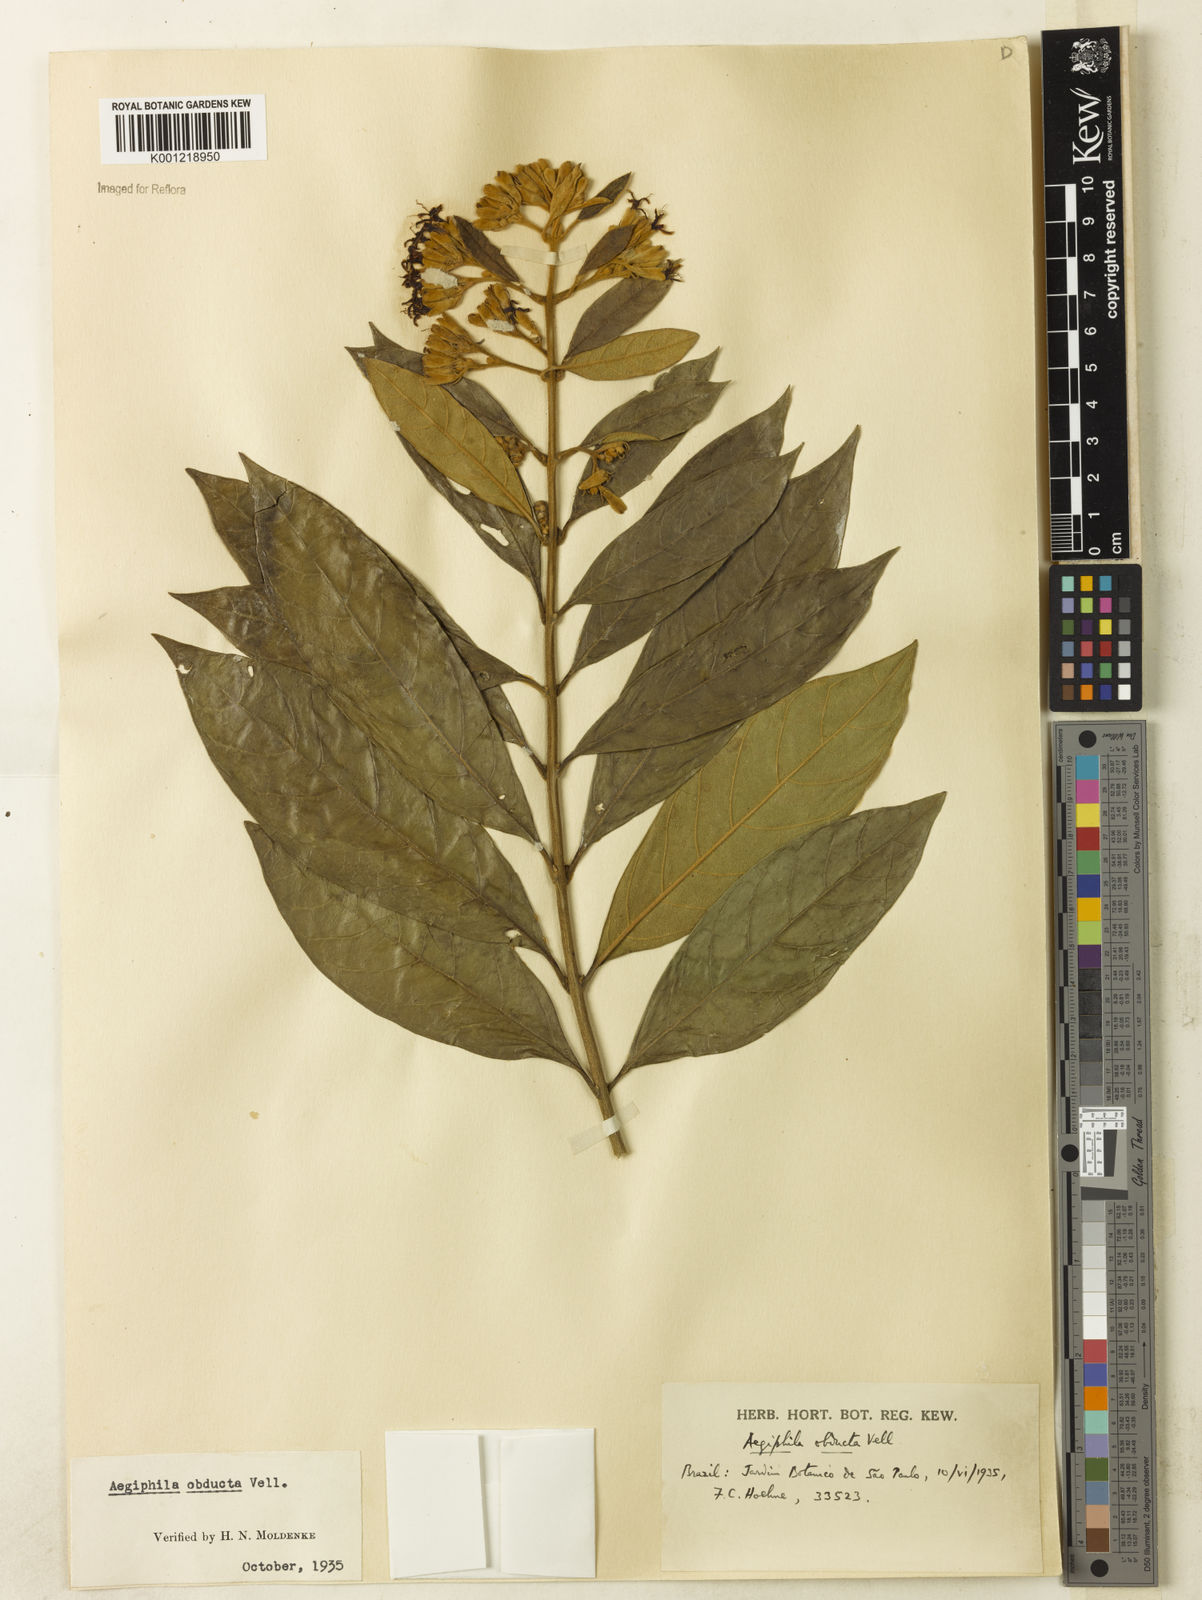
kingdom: Plantae
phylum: Tracheophyta
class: Magnoliopsida
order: Lamiales
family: Lamiaceae
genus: Aegiphila
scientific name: Aegiphila obducta
